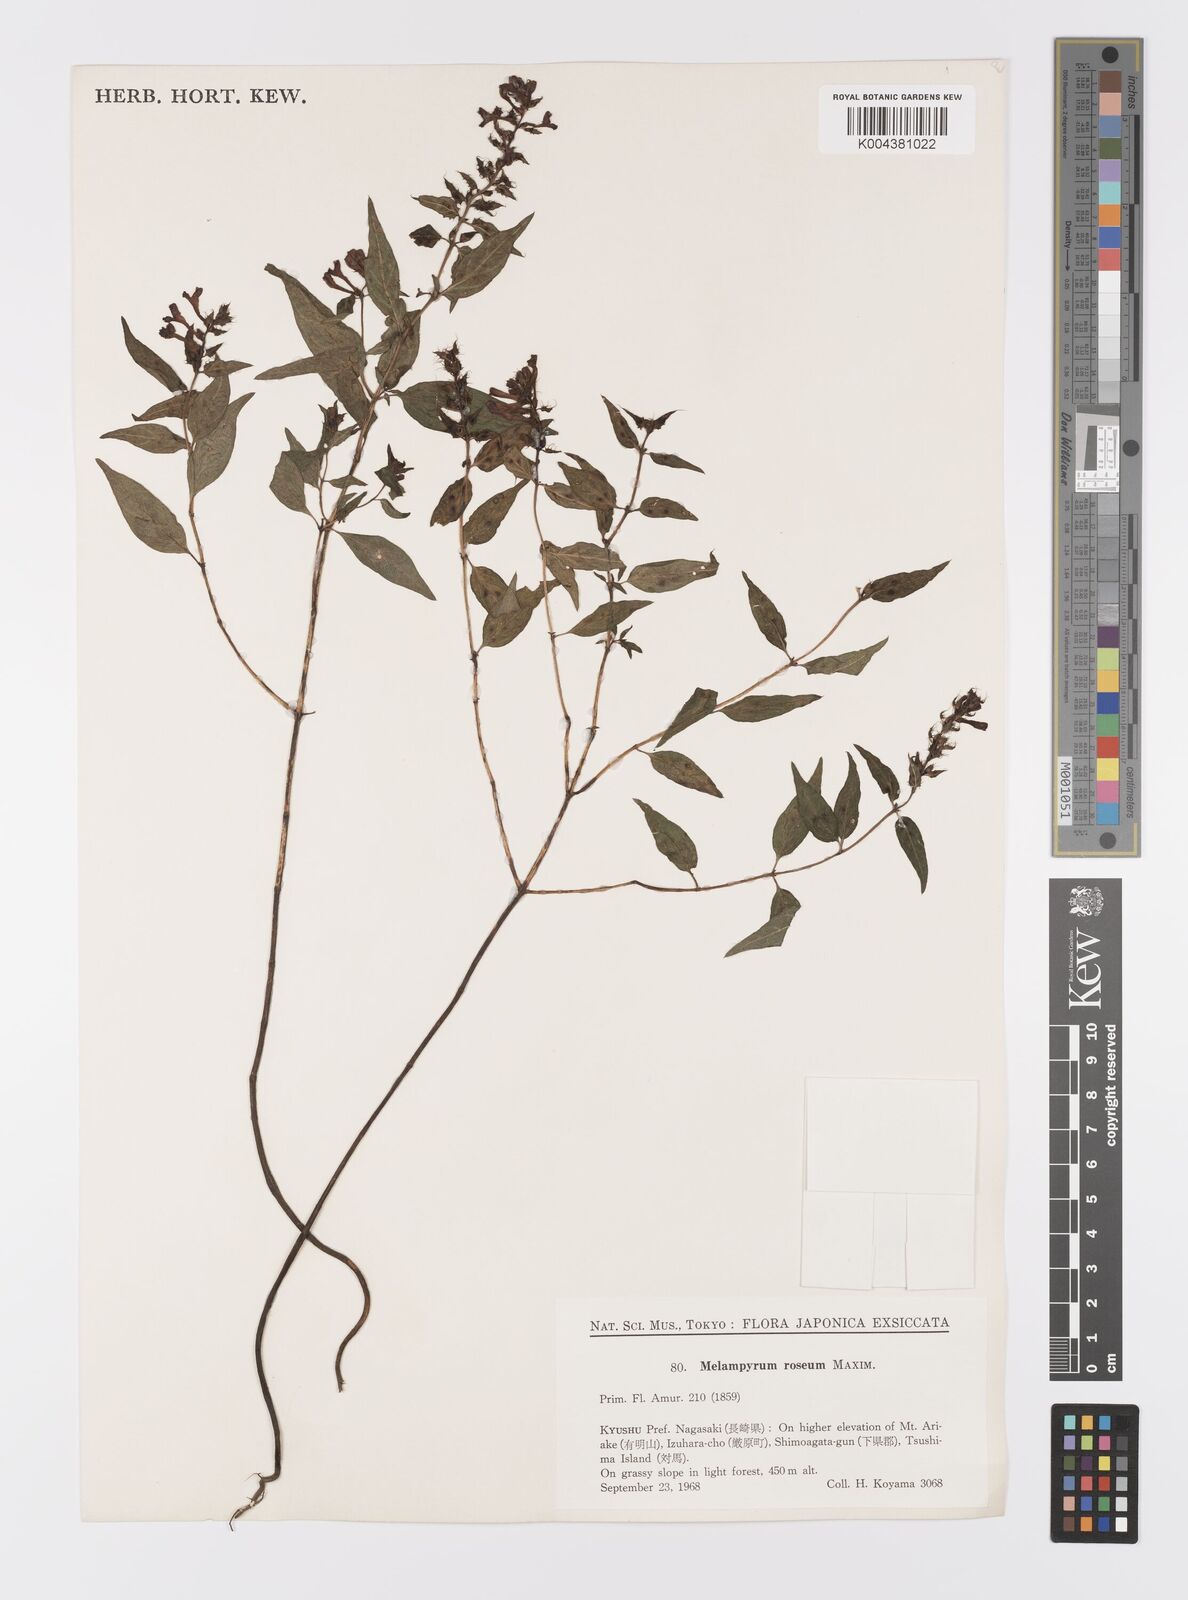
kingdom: Plantae
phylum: Tracheophyta
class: Magnoliopsida
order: Lamiales
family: Orobanchaceae
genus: Melampyrum
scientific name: Melampyrum roseum
